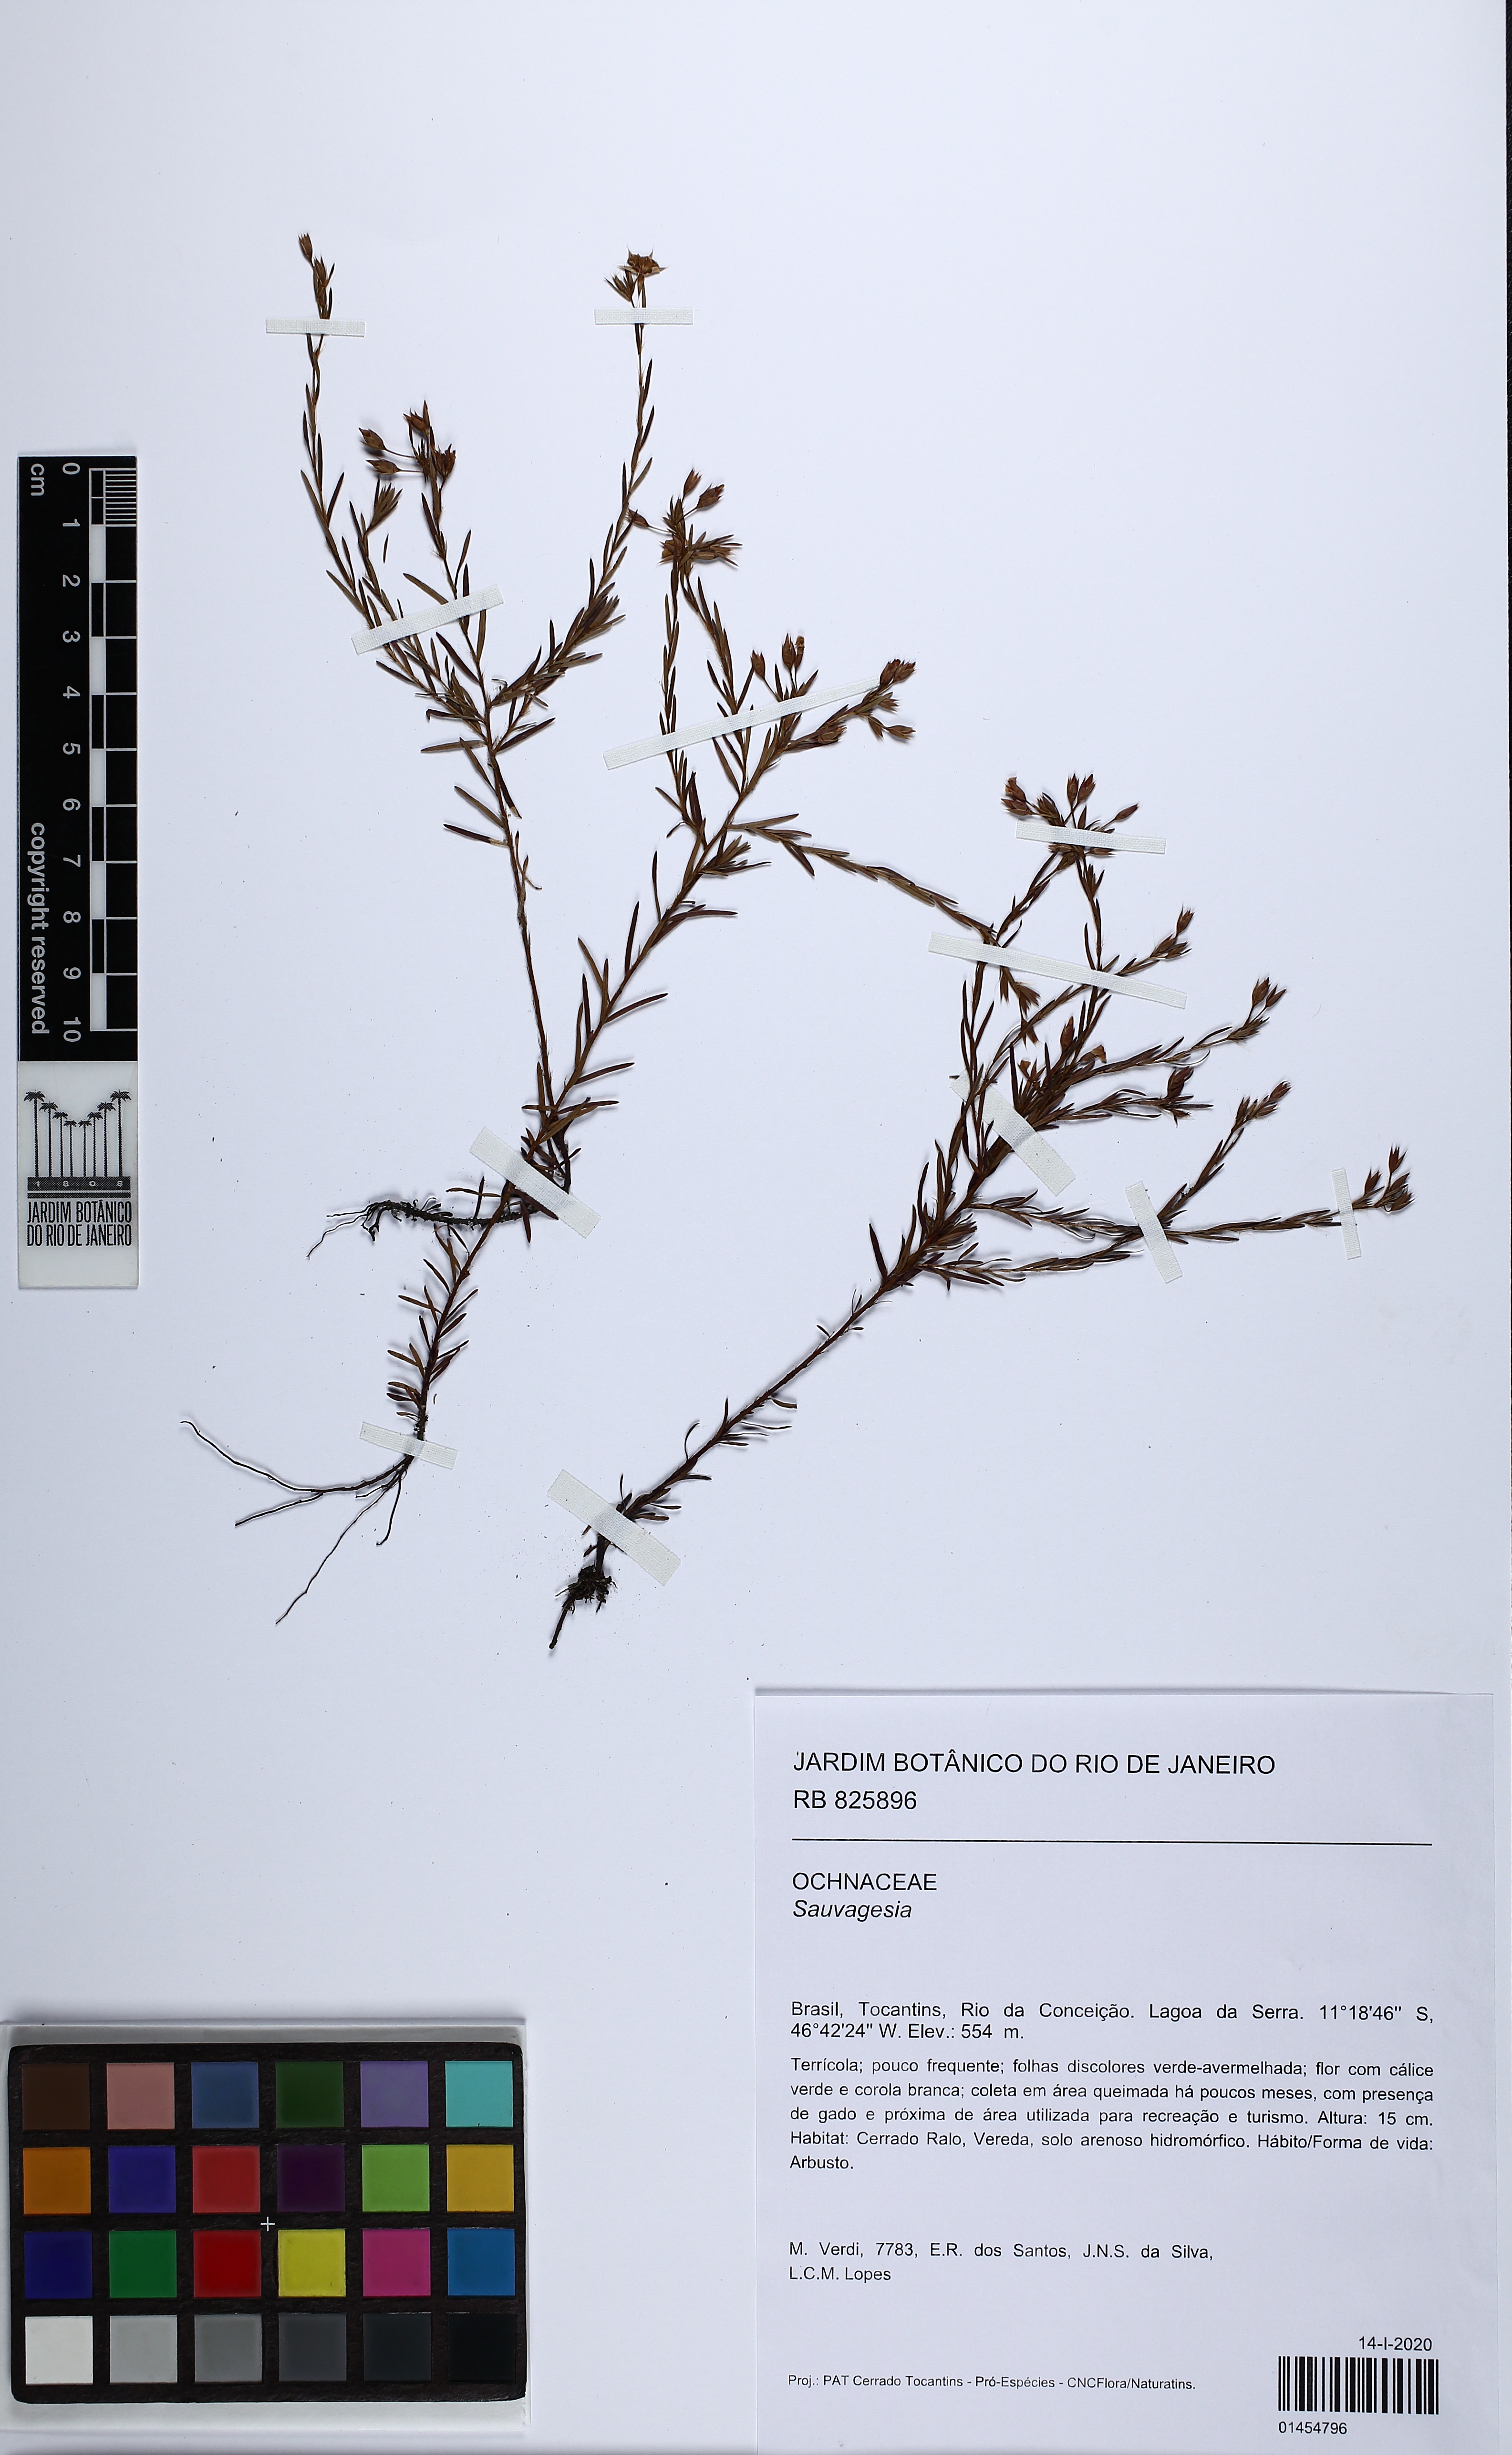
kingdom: Plantae
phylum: Tracheophyta
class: Magnoliopsida
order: Malpighiales
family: Ochnaceae
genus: Sauvagesia
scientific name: Sauvagesia
